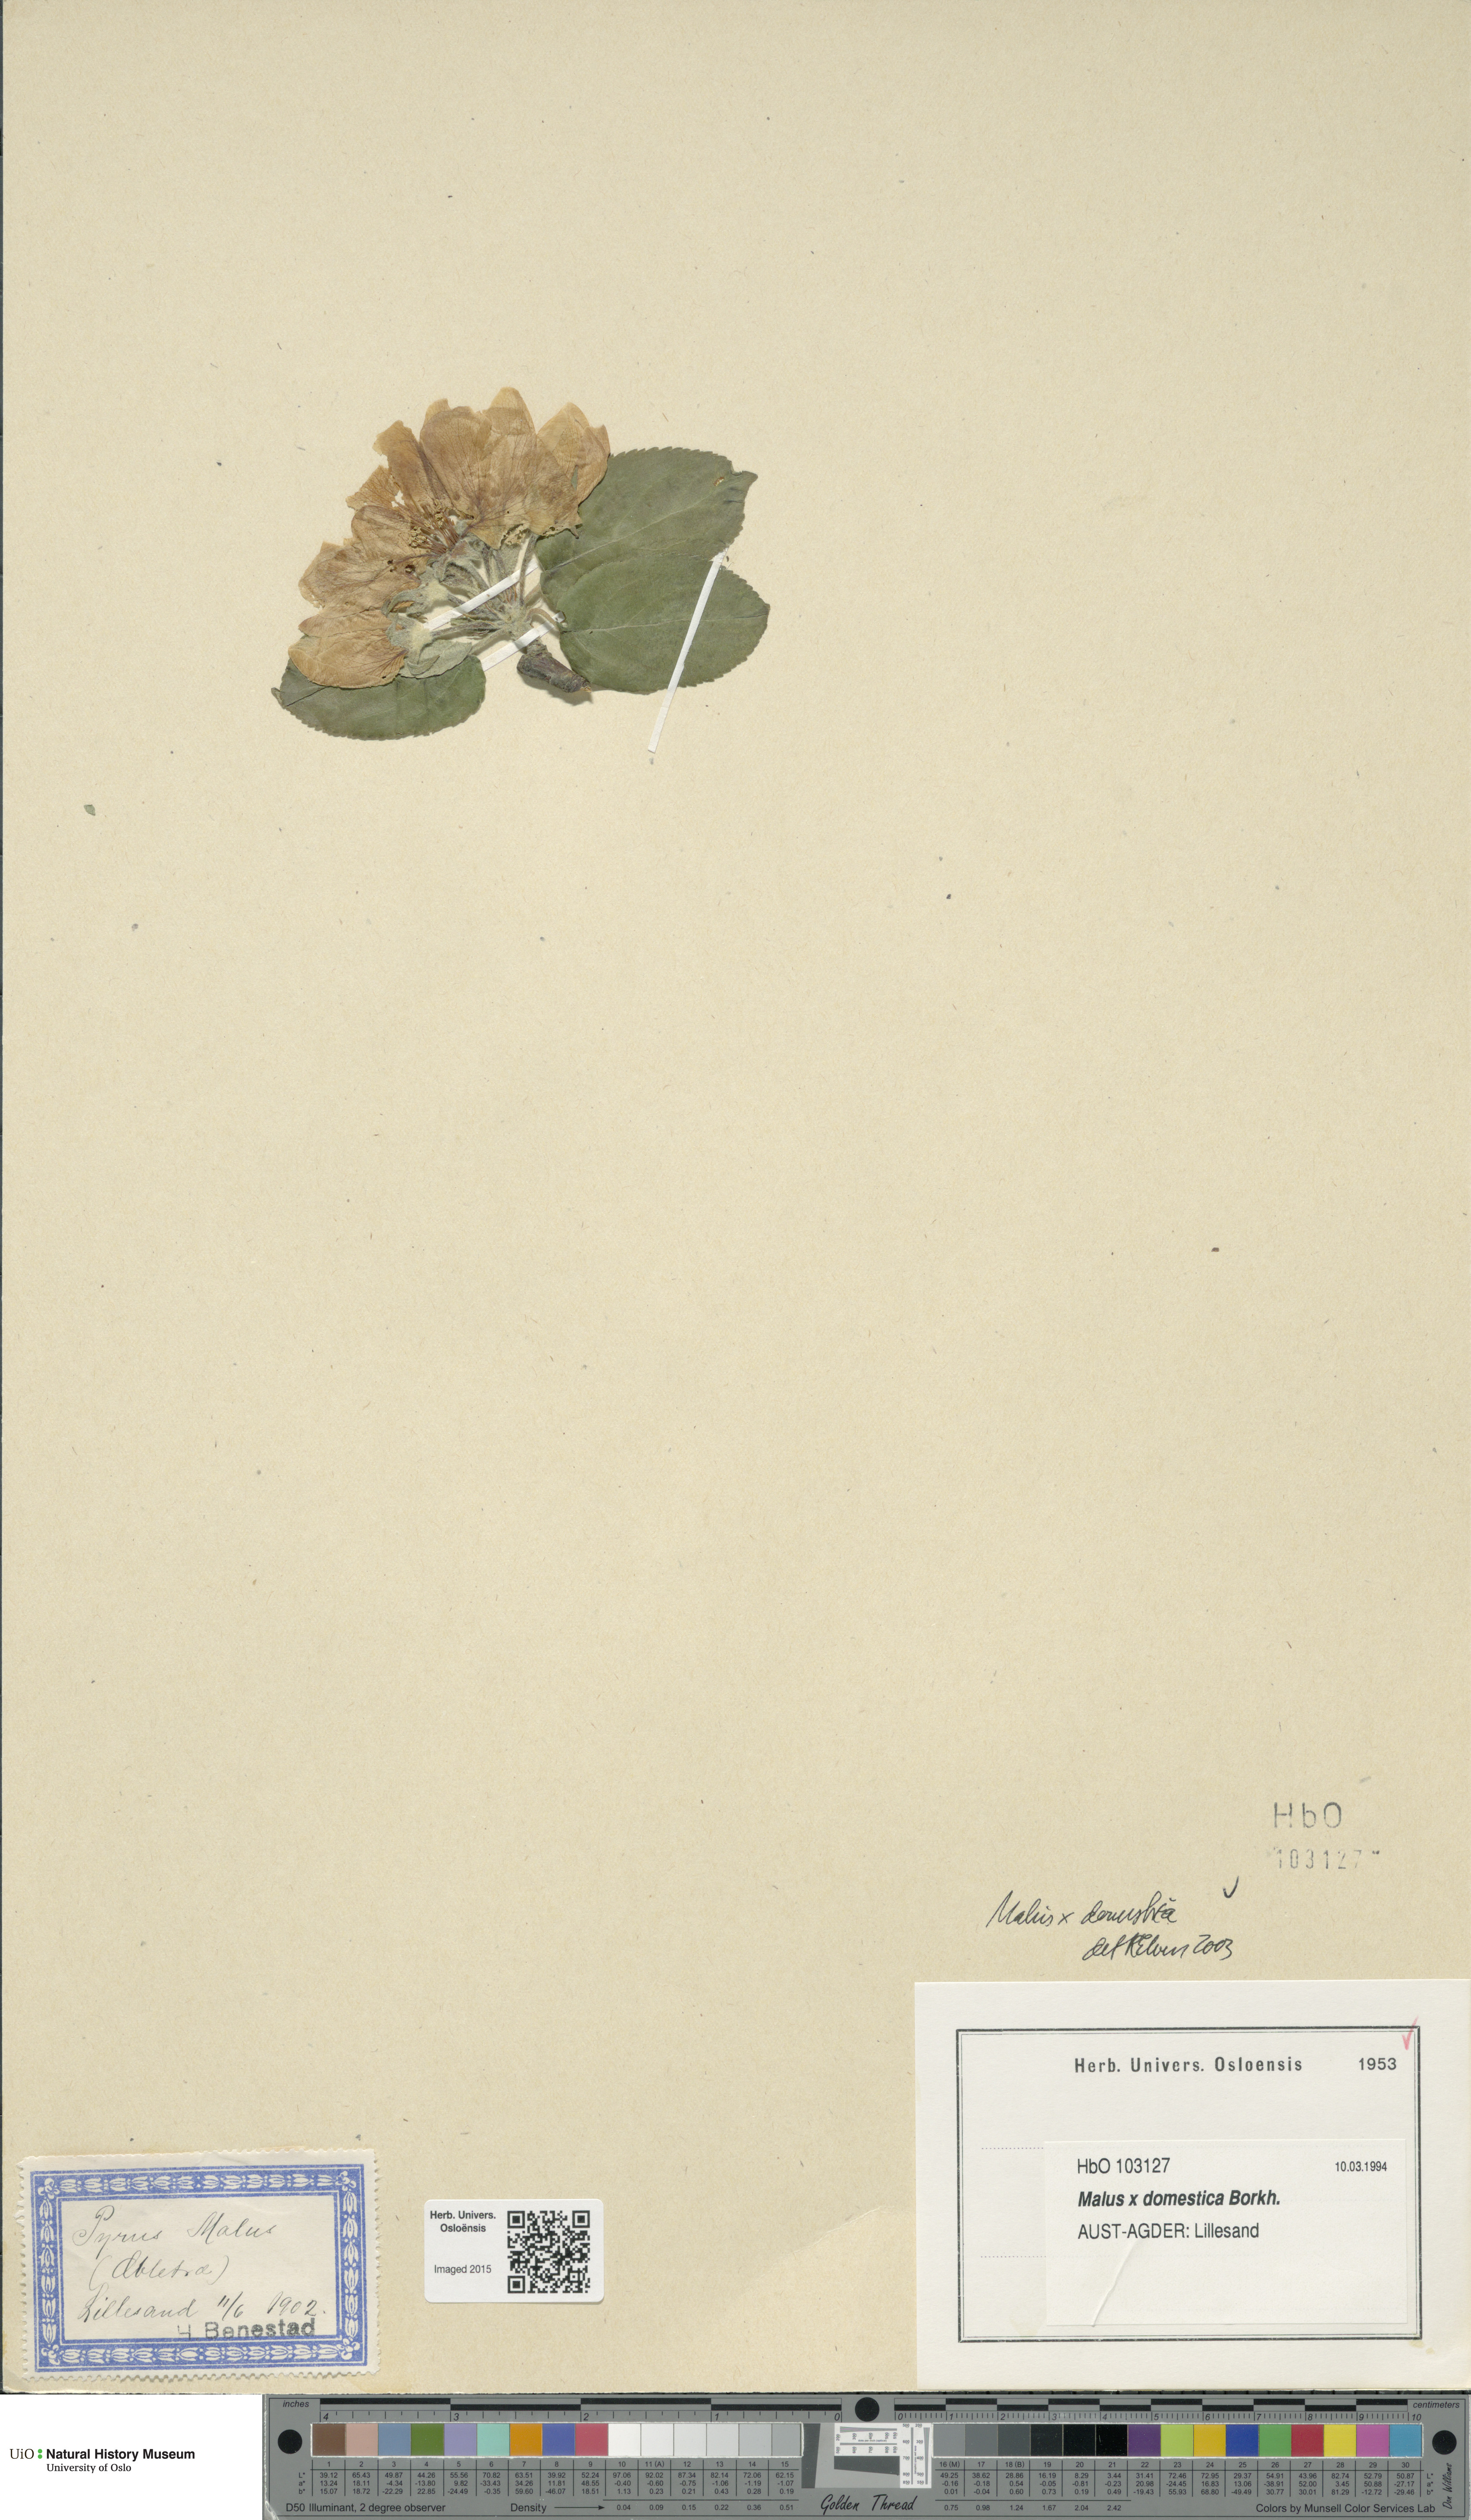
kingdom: Plantae
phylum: Tracheophyta
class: Magnoliopsida
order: Rosales
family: Rosaceae
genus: Malus
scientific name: Malus domestica
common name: Apple
